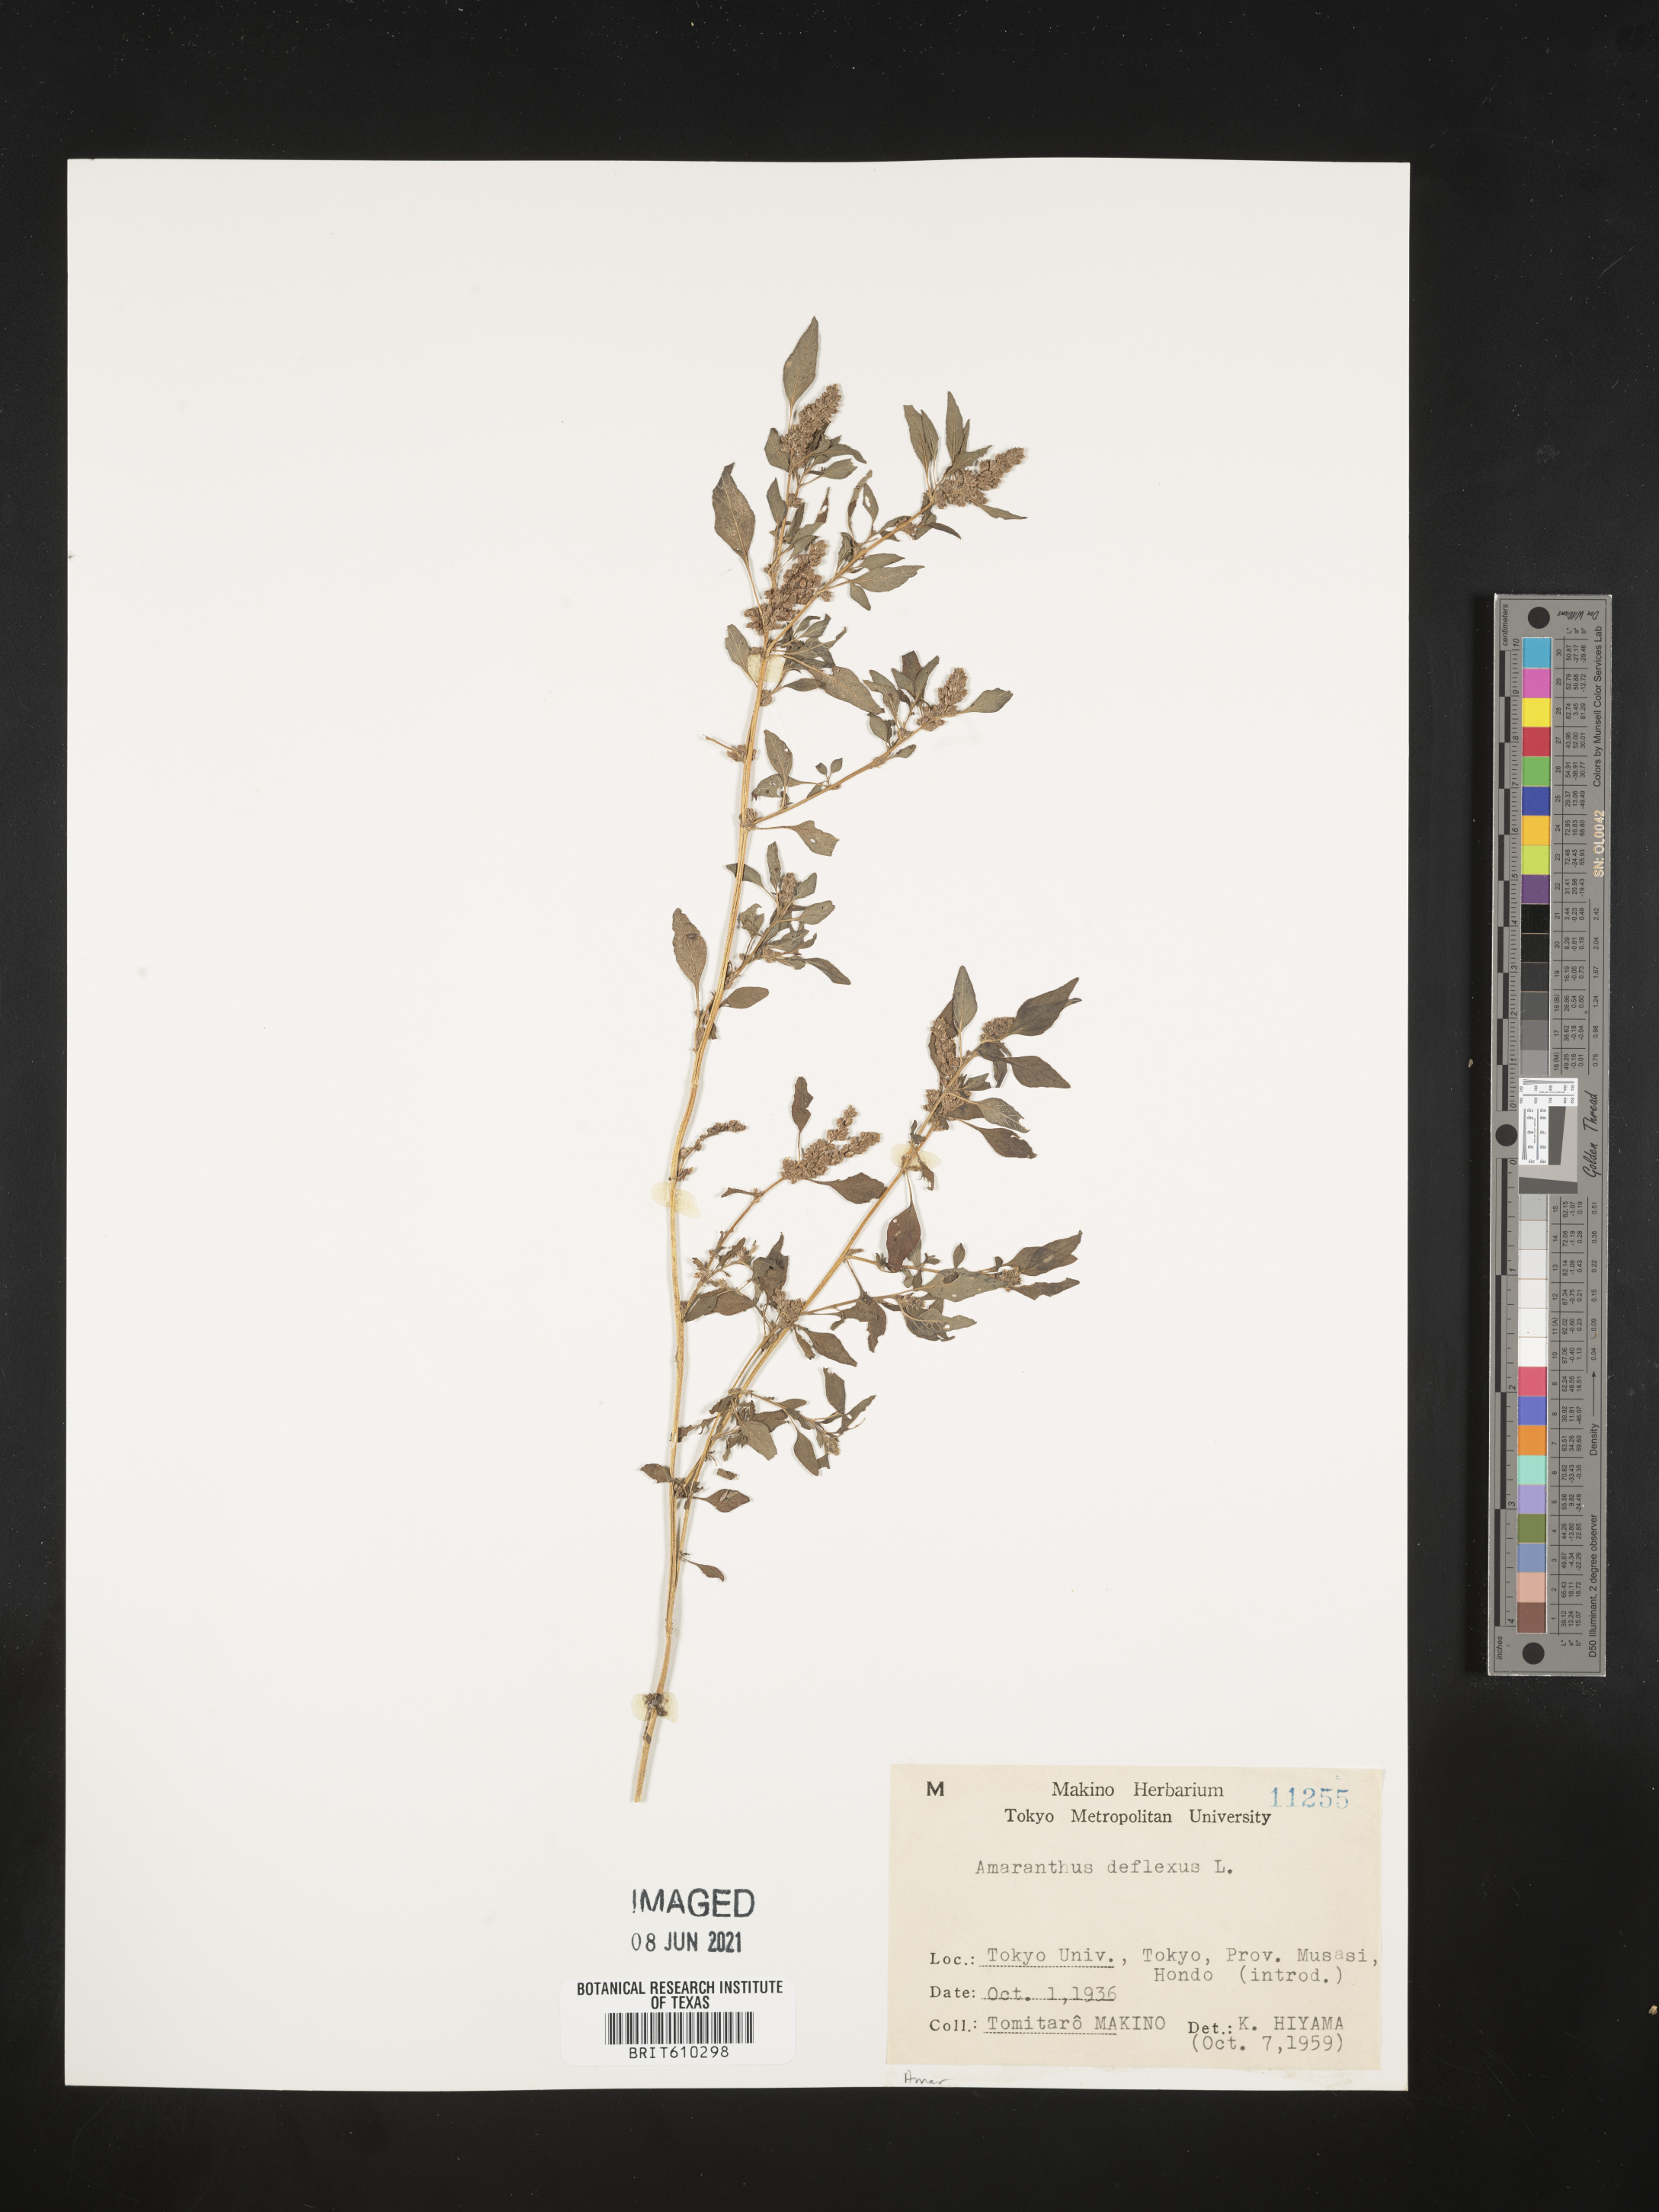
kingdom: Plantae
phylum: Tracheophyta
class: Magnoliopsida
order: Caryophyllales
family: Amaranthaceae
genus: Amaranthus
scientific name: Amaranthus deflexus
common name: Perennial pigweed
